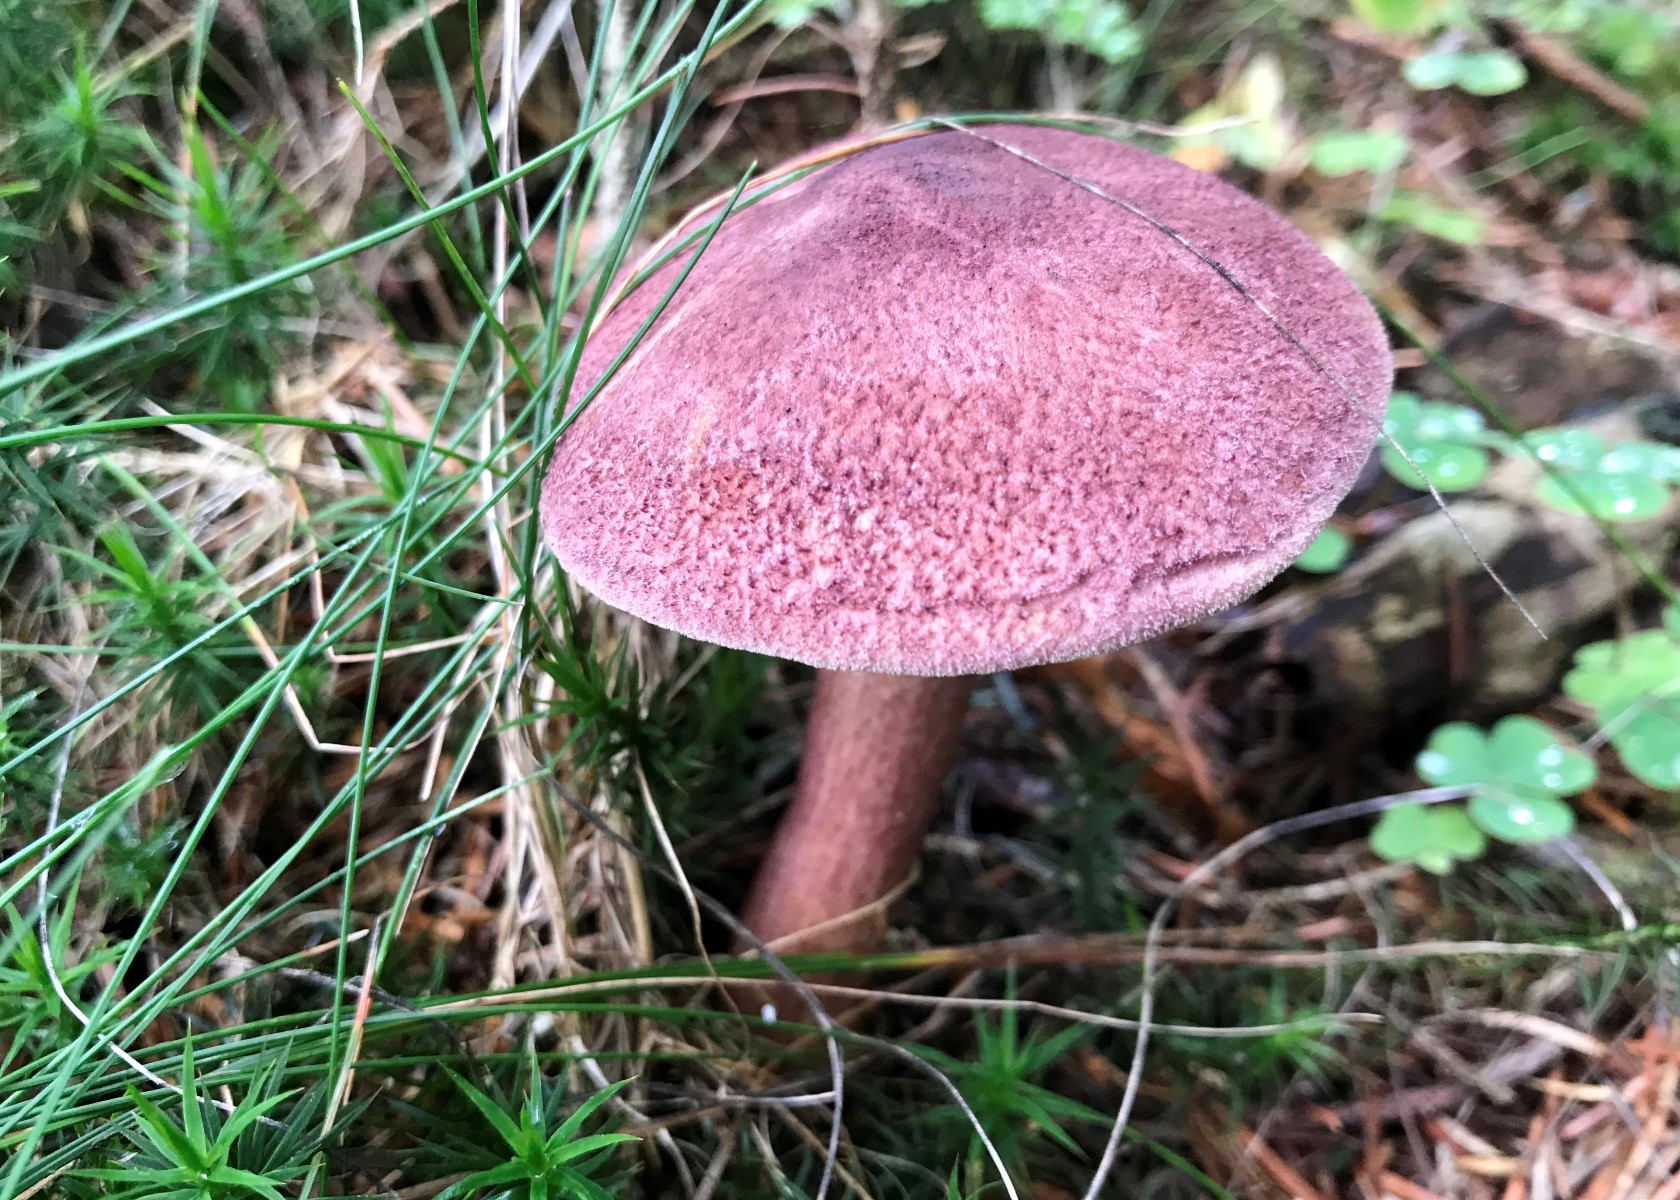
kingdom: Fungi
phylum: Basidiomycota
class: Agaricomycetes
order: Agaricales
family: Tricholomataceae
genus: Tricholomopsis
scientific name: Tricholomopsis rutilans
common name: purpur-væbnerhat
